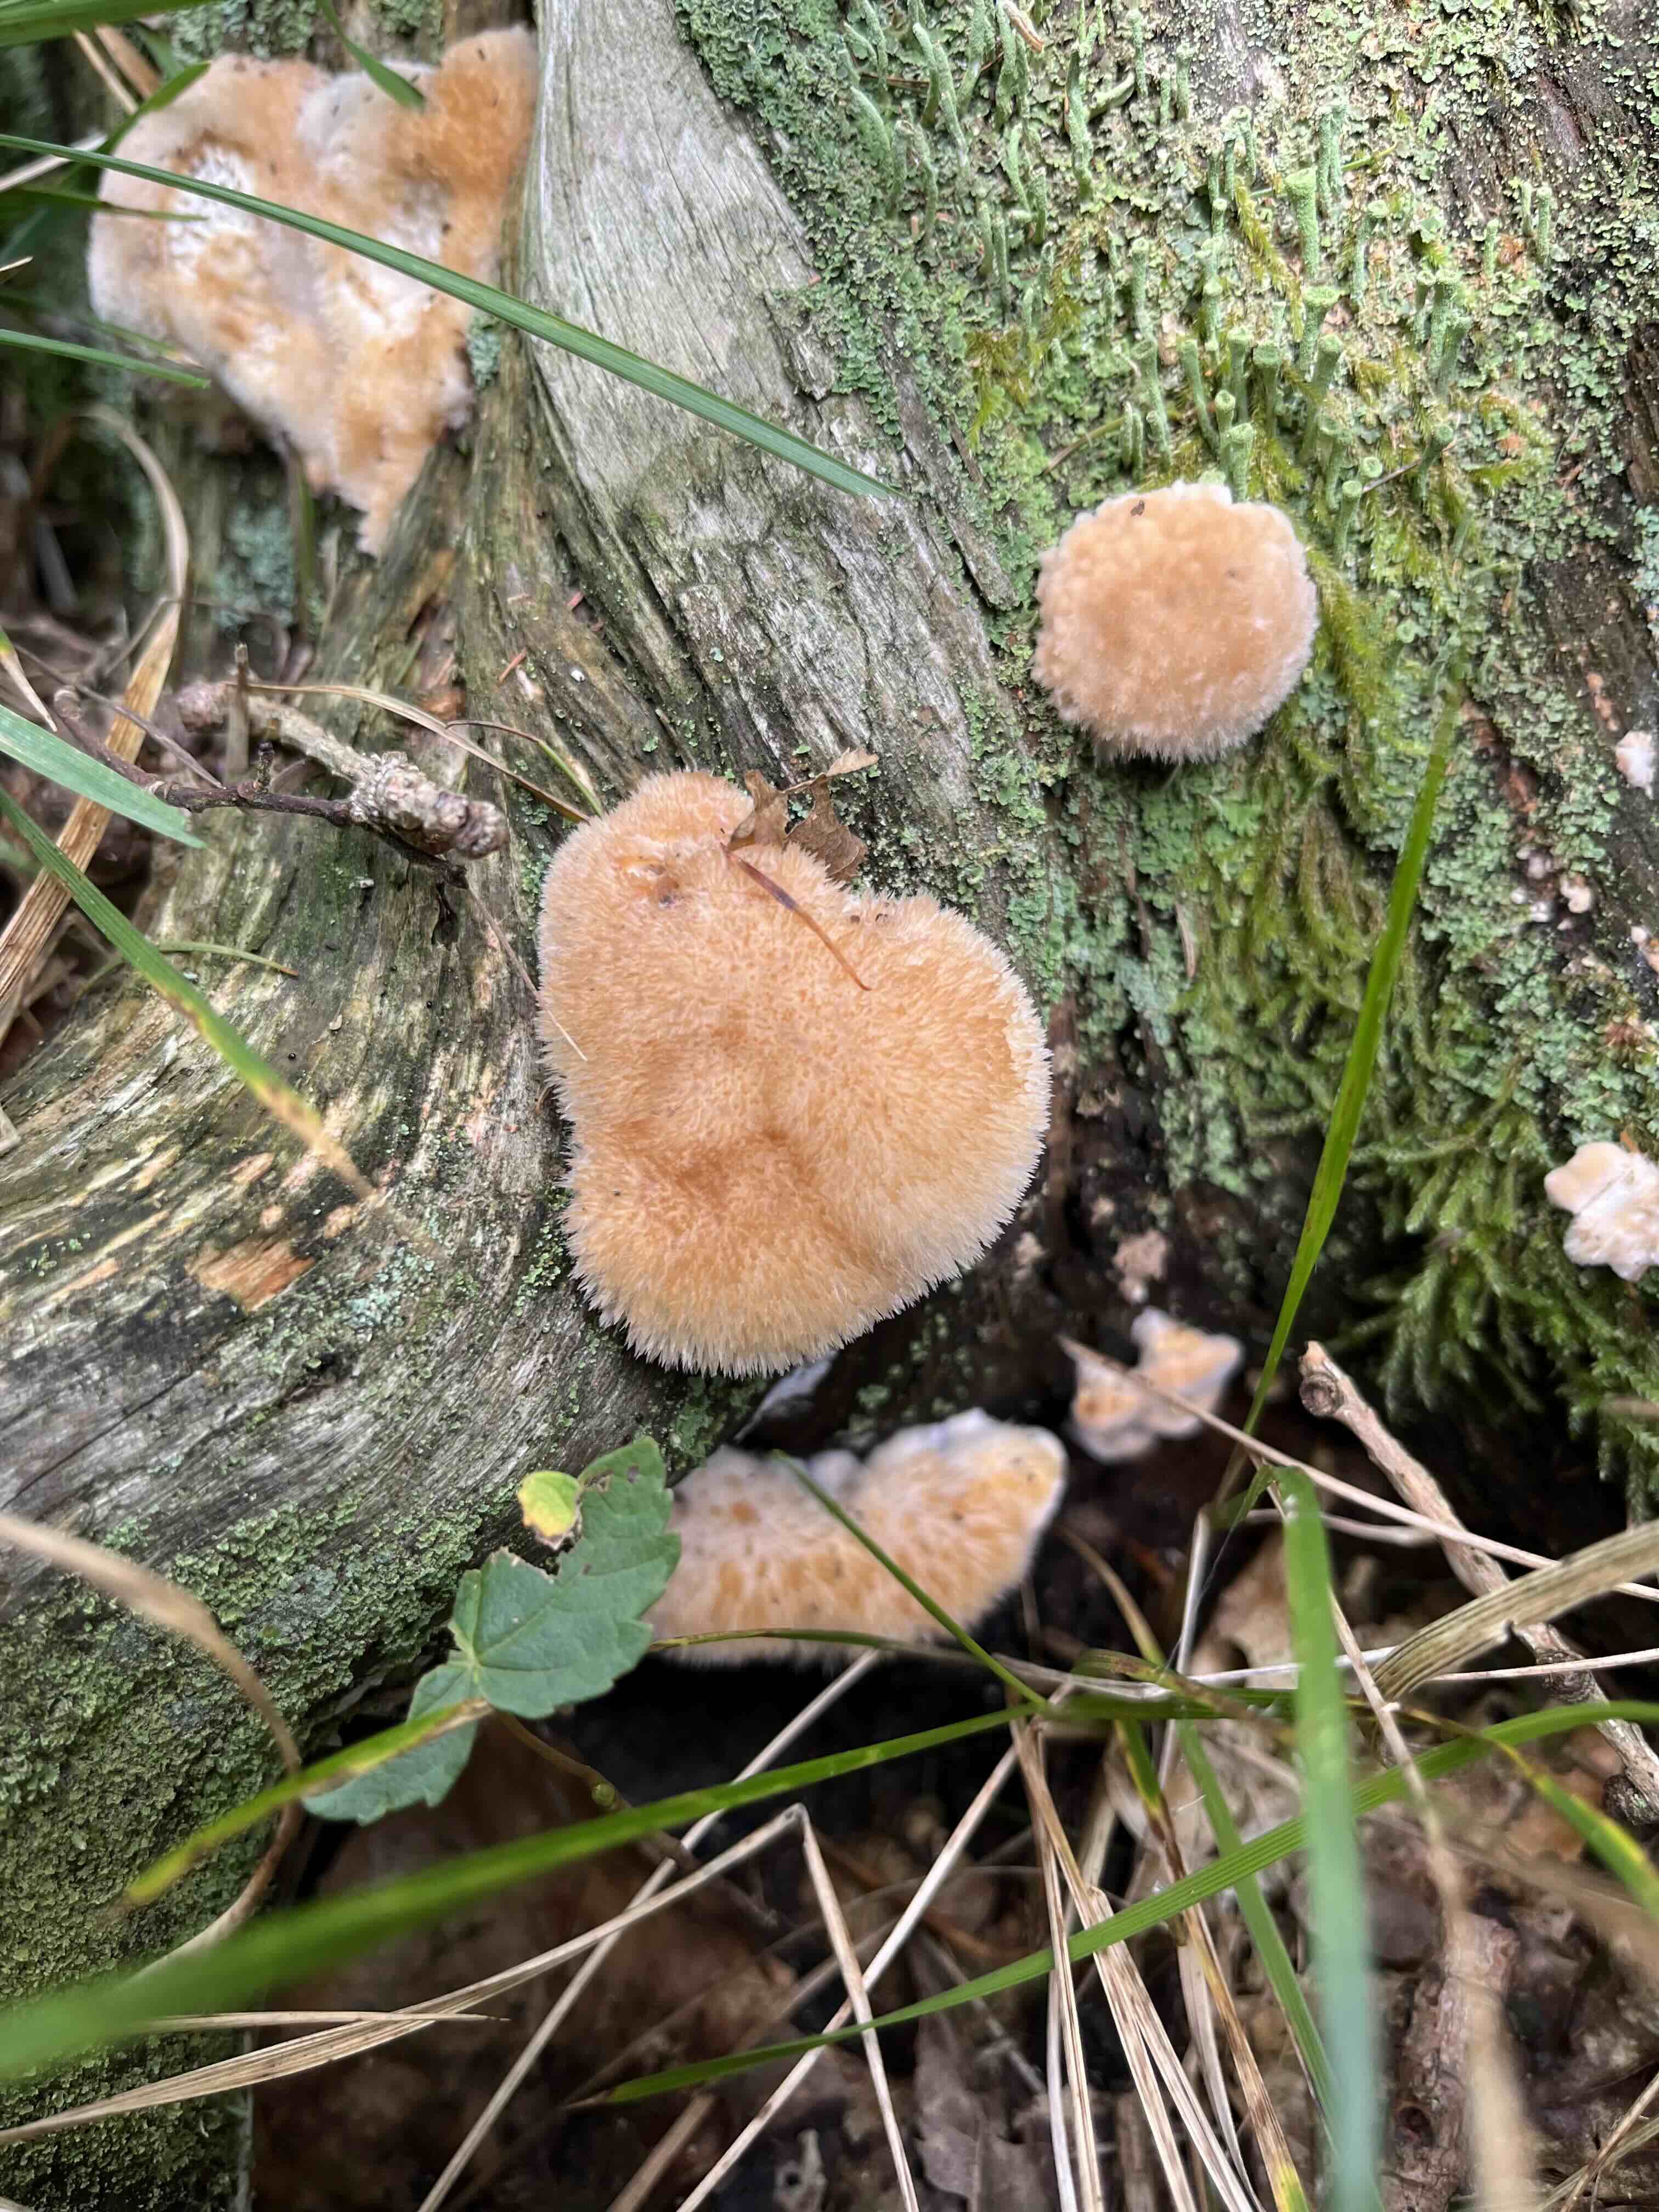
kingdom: Fungi
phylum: Basidiomycota
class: Agaricomycetes
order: Polyporales
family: Dacryobolaceae
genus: Postia
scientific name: Postia ptychogaster
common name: støvende kødporesvamp
